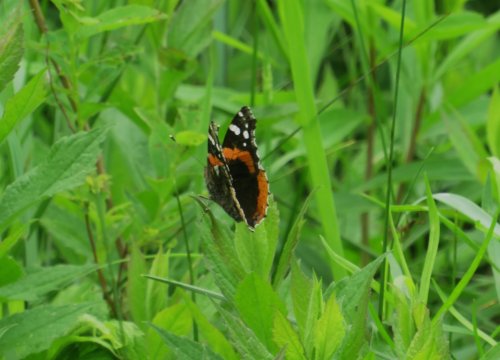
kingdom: Animalia
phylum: Arthropoda
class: Insecta
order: Lepidoptera
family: Nymphalidae
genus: Vanessa
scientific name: Vanessa atalanta
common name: Red Admiral
